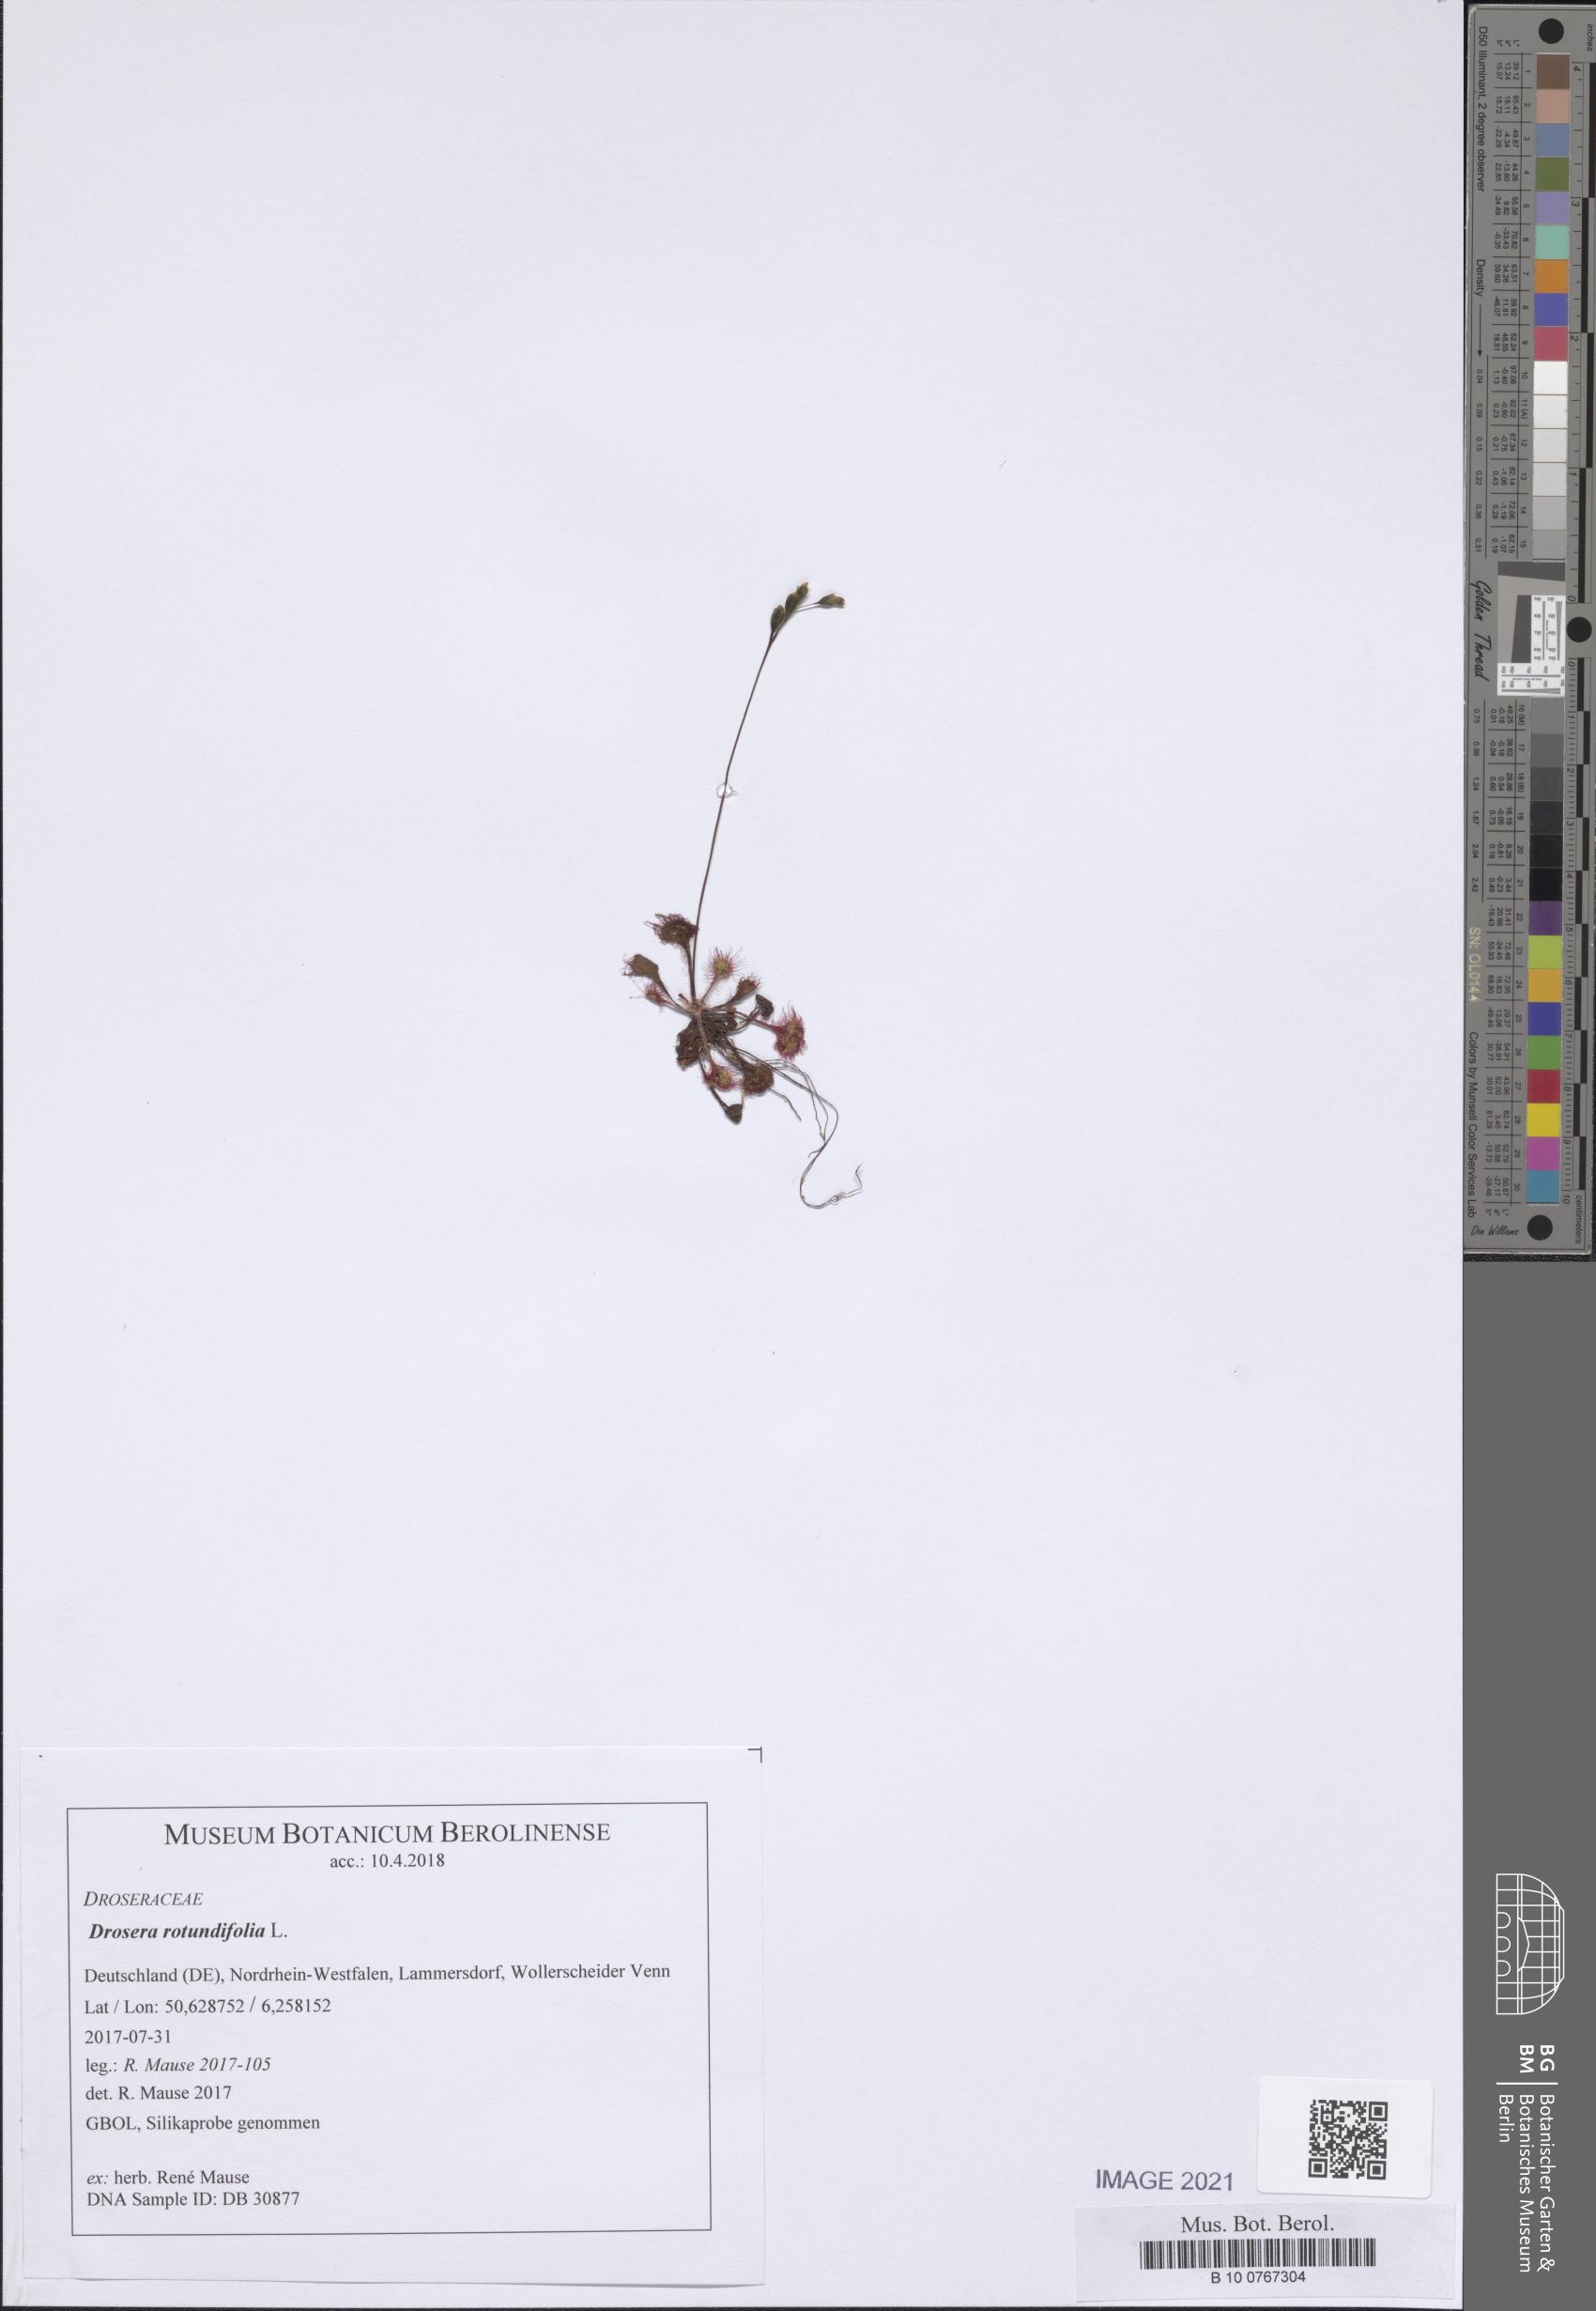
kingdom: Plantae
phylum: Tracheophyta
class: Magnoliopsida
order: Caryophyllales
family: Droseraceae
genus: Drosera
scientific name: Drosera rotundifolia
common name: Round-leaved sundew
